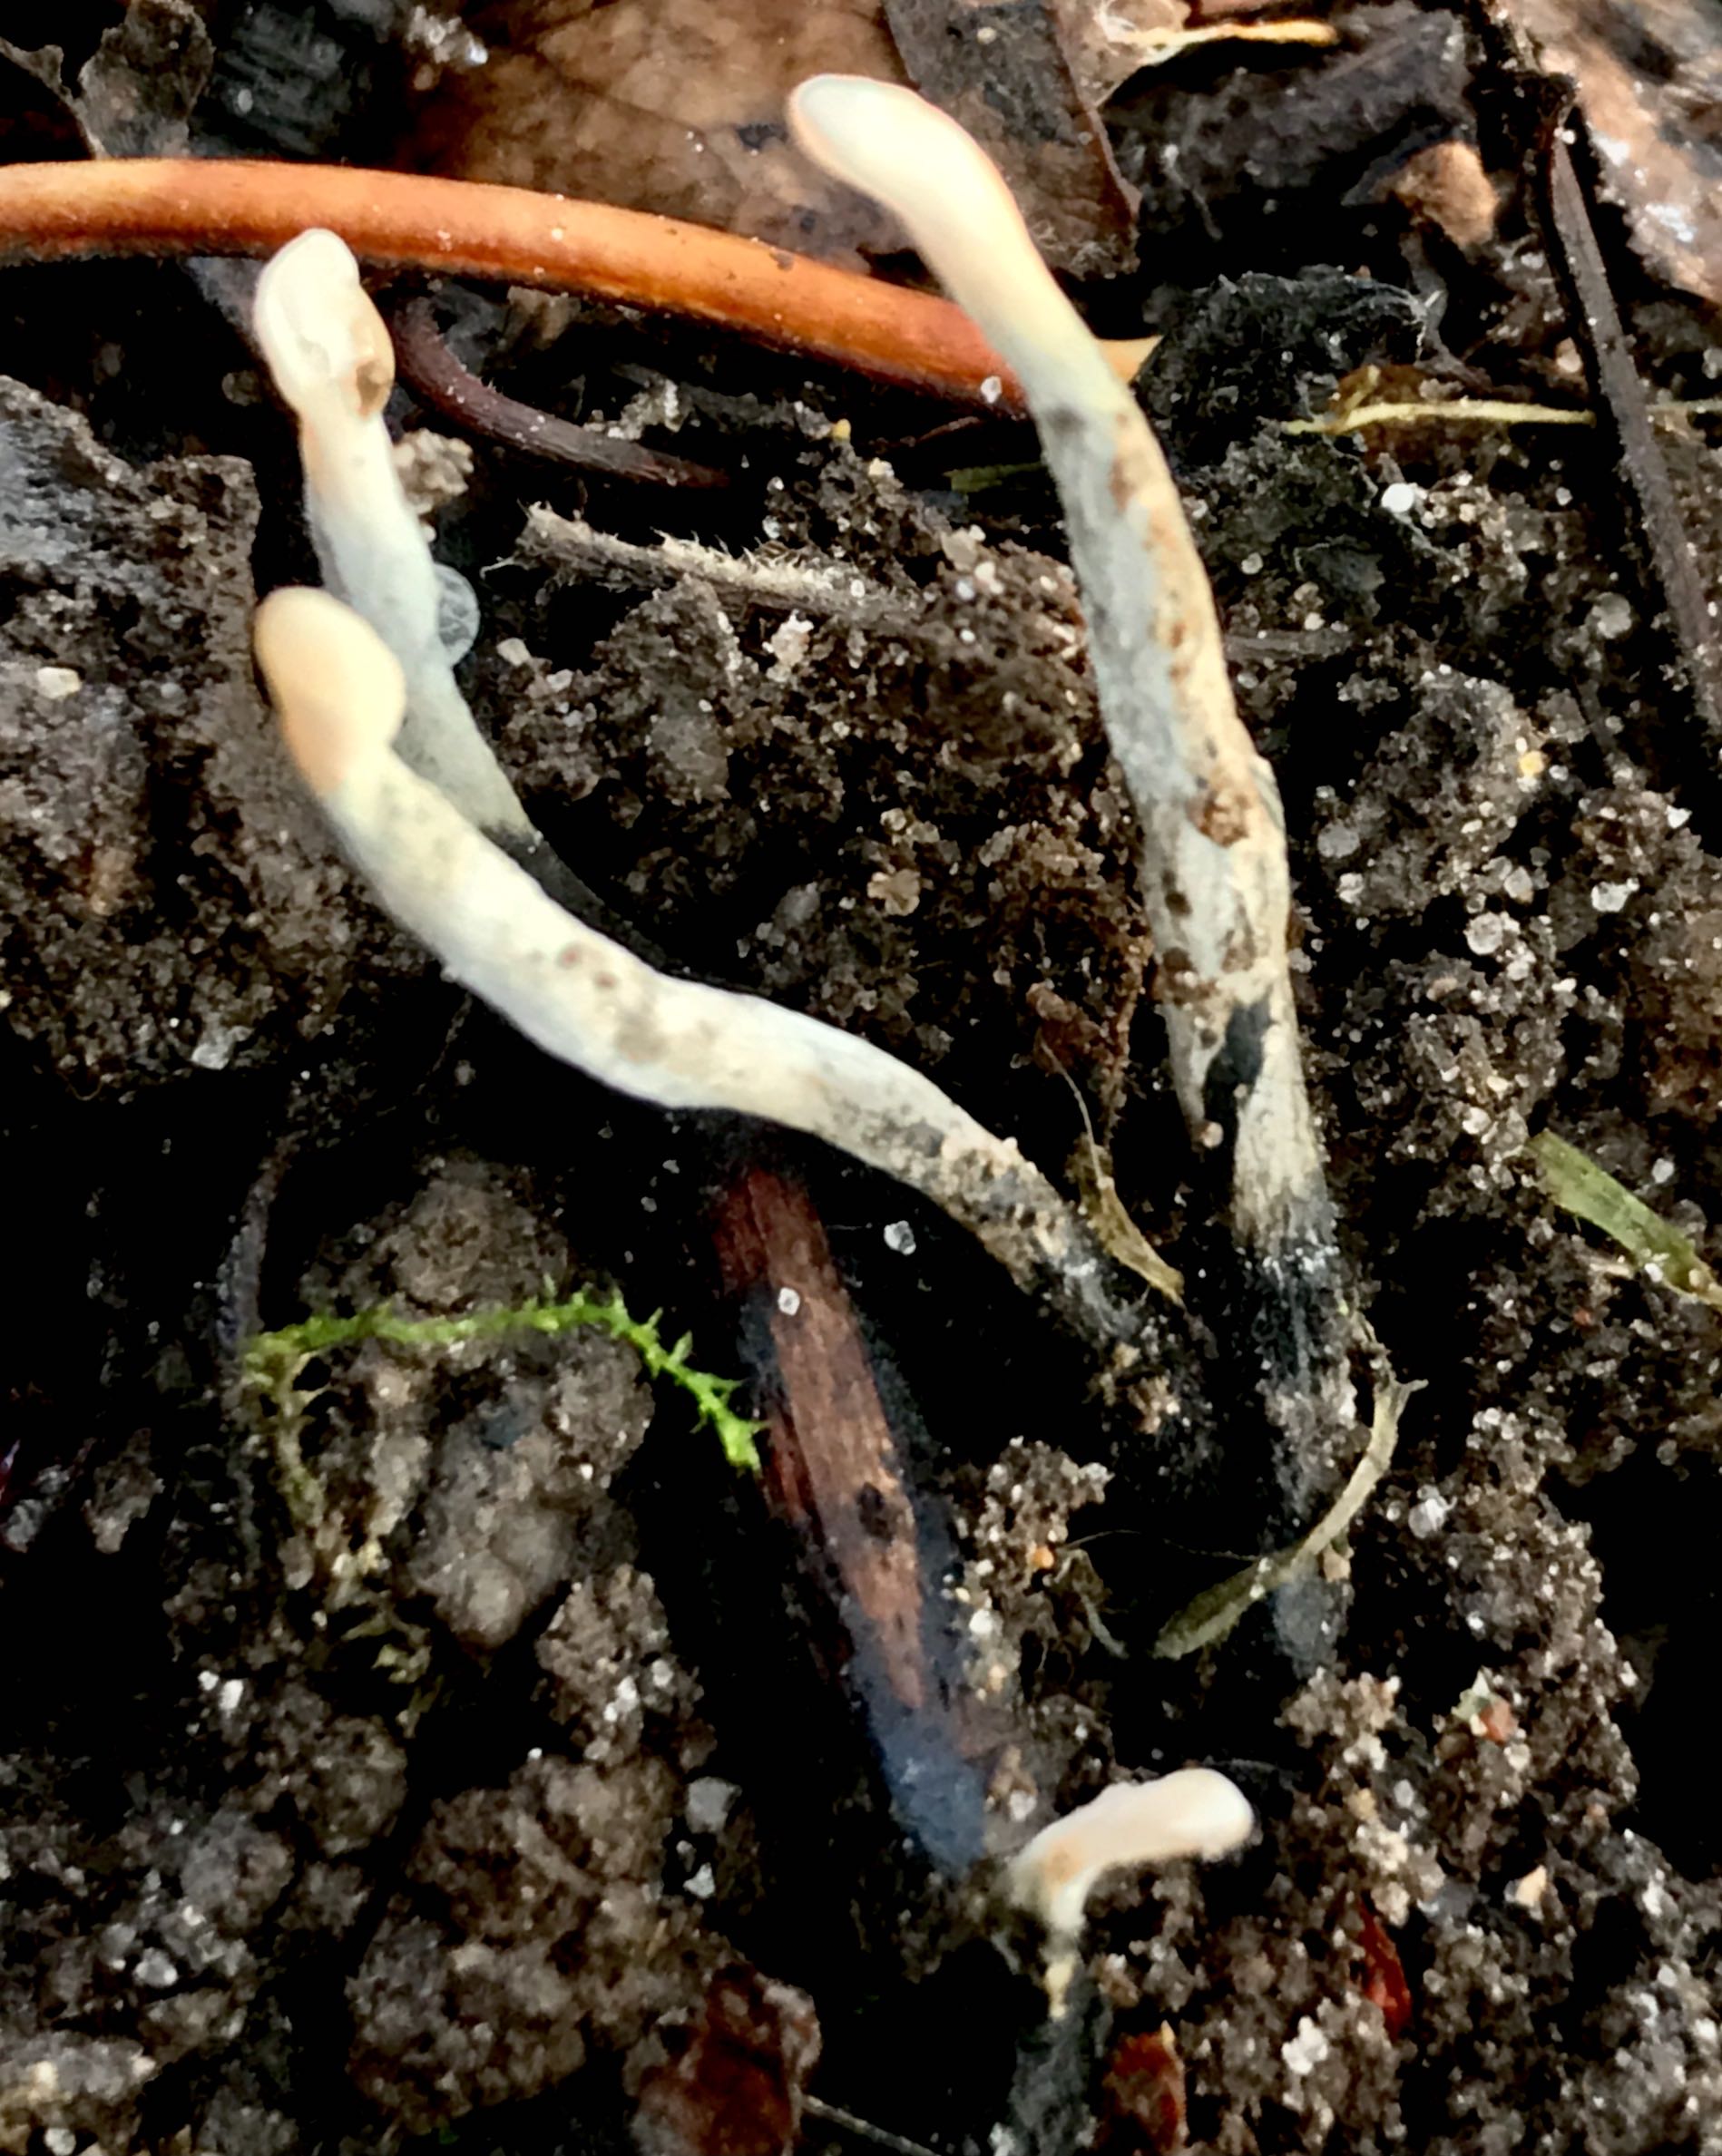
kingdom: Fungi
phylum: Ascomycota
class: Sordariomycetes
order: Xylariales
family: Xylariaceae
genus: Xylaria
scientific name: Xylaria hypoxylon
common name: grenet stødsvamp
